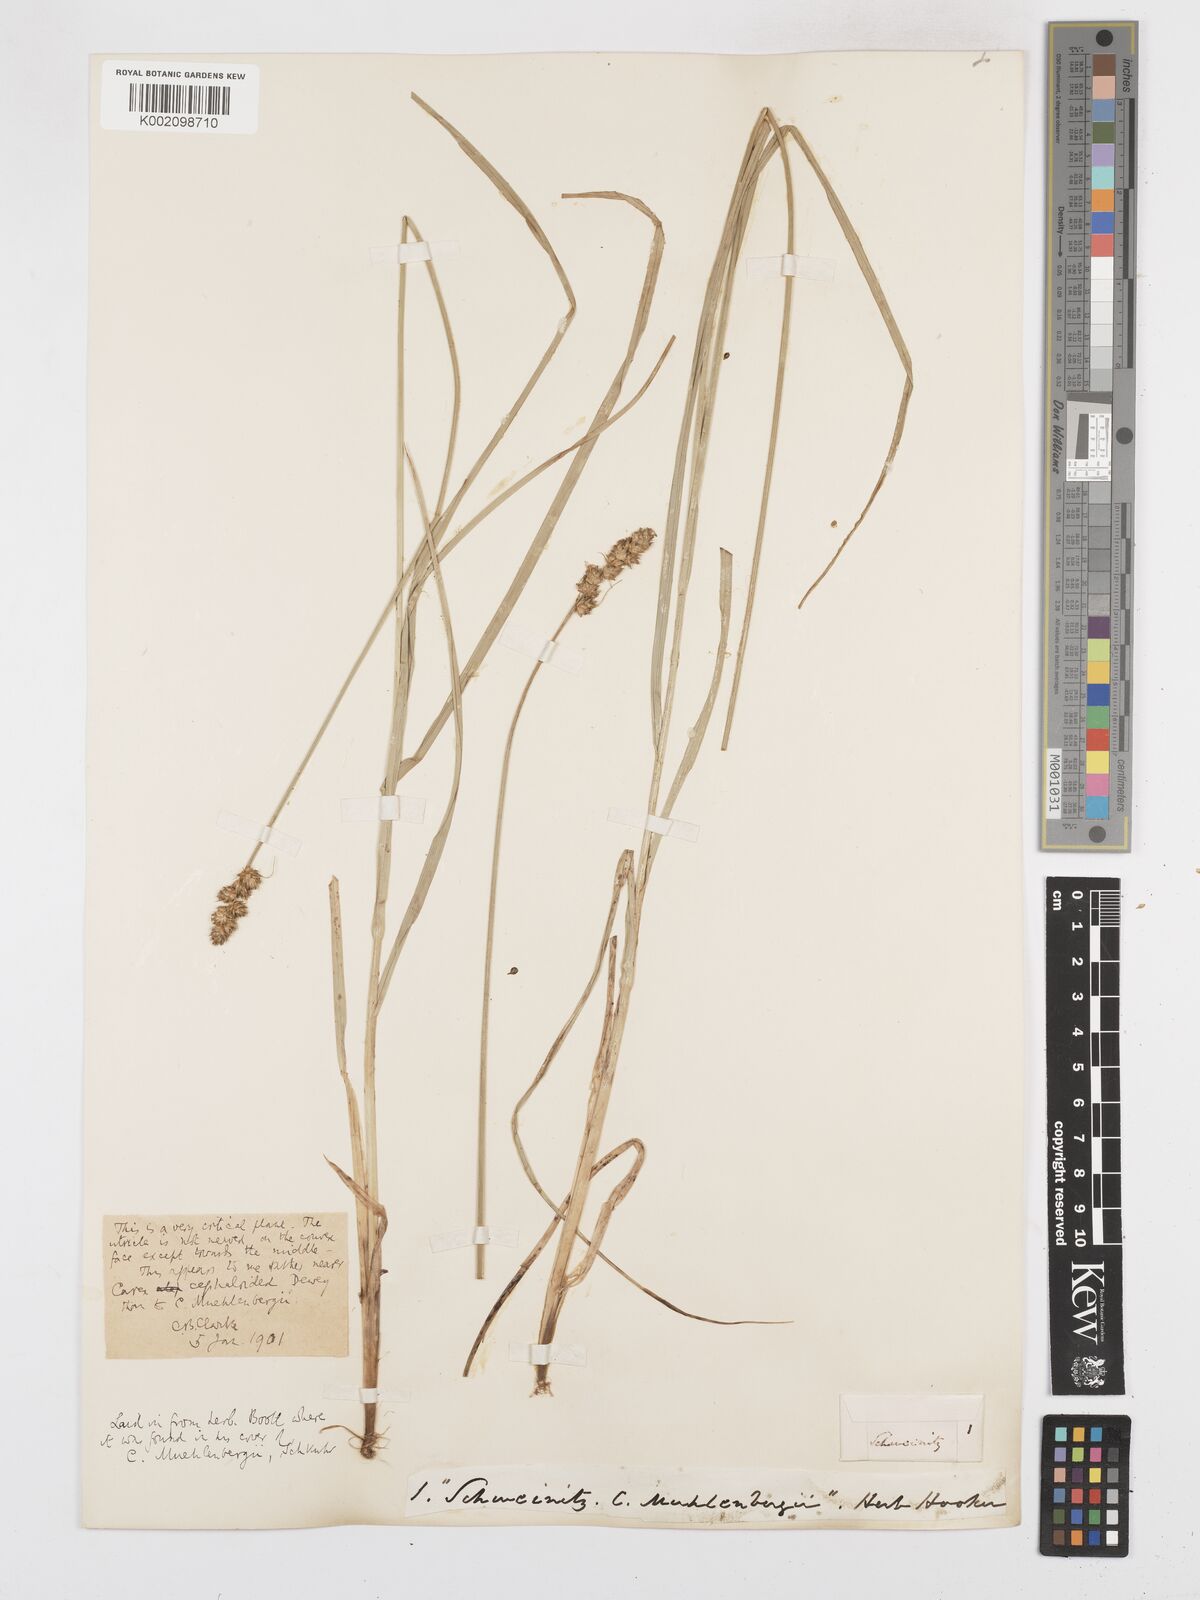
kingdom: Plantae
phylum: Tracheophyta
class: Liliopsida
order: Poales
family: Cyperaceae
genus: Carex
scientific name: Carex gravida
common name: Heavy sedge
